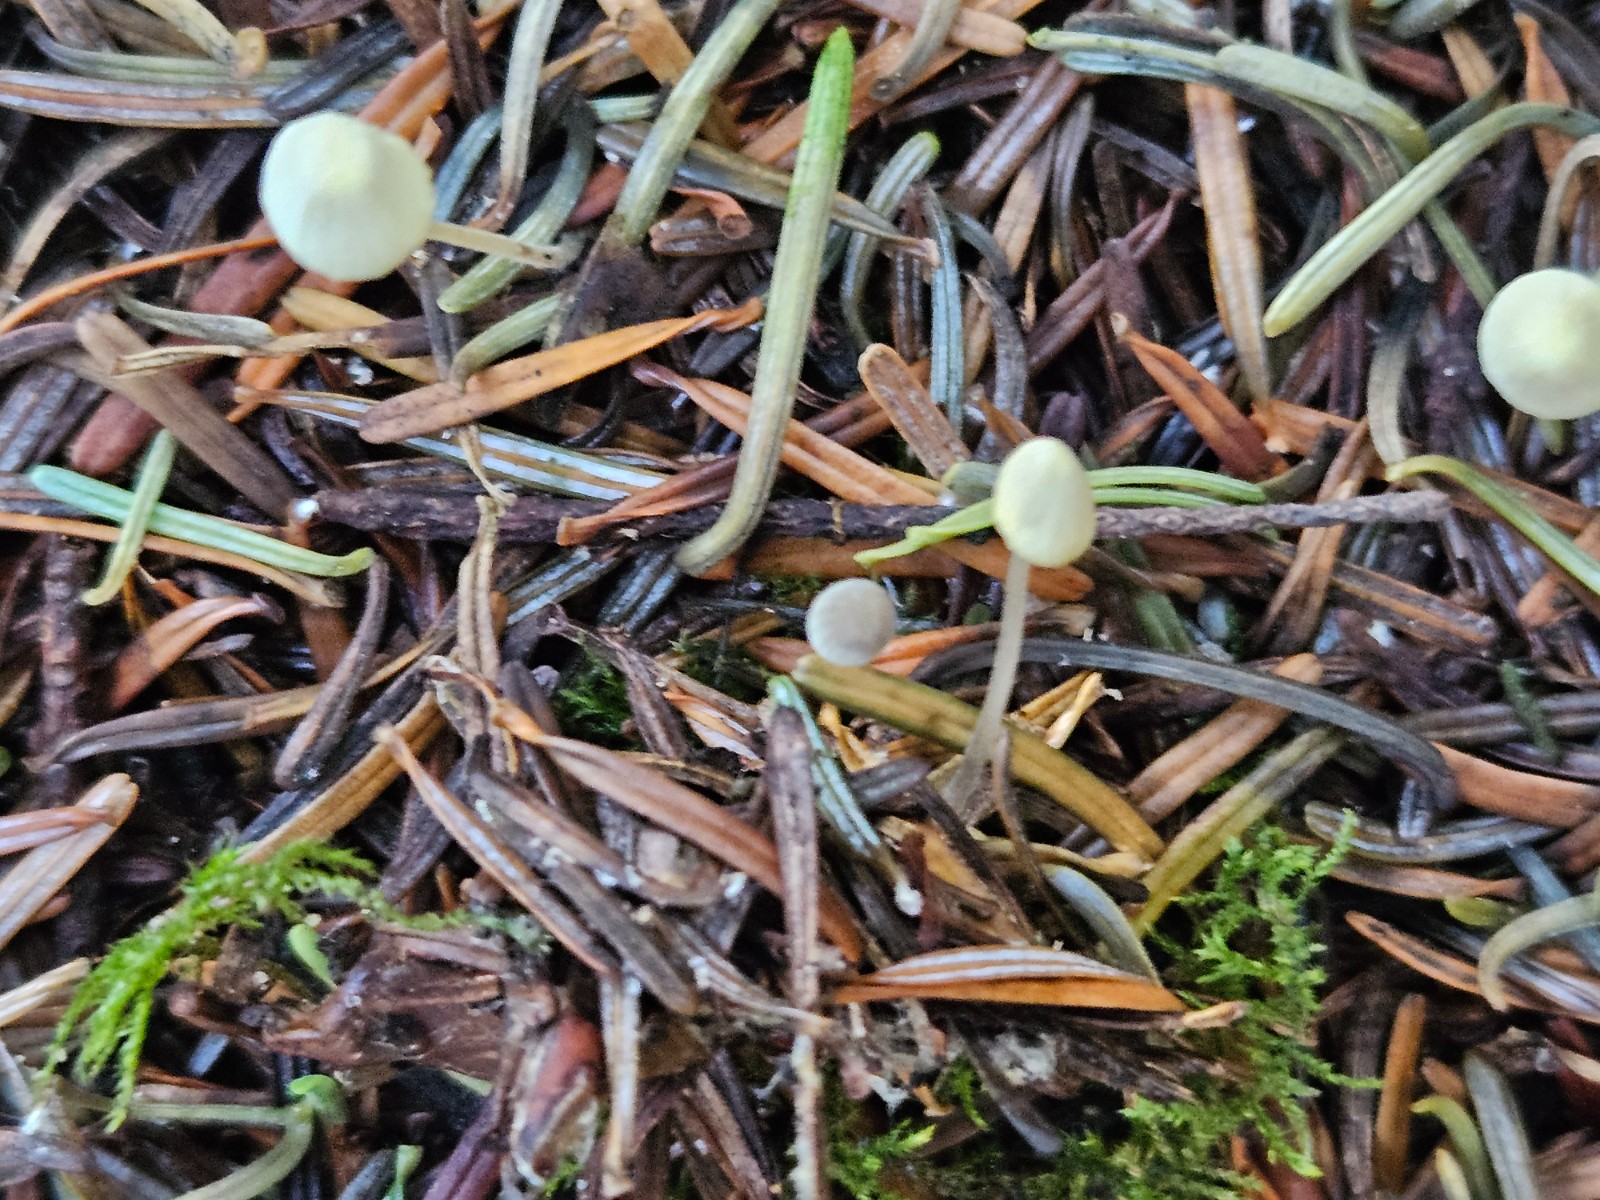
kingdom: Fungi
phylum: Basidiomycota
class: Agaricomycetes
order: Agaricales
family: Mycenaceae
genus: Mycena
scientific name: Mycena citrinomarginata
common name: gulægget huesvamp
